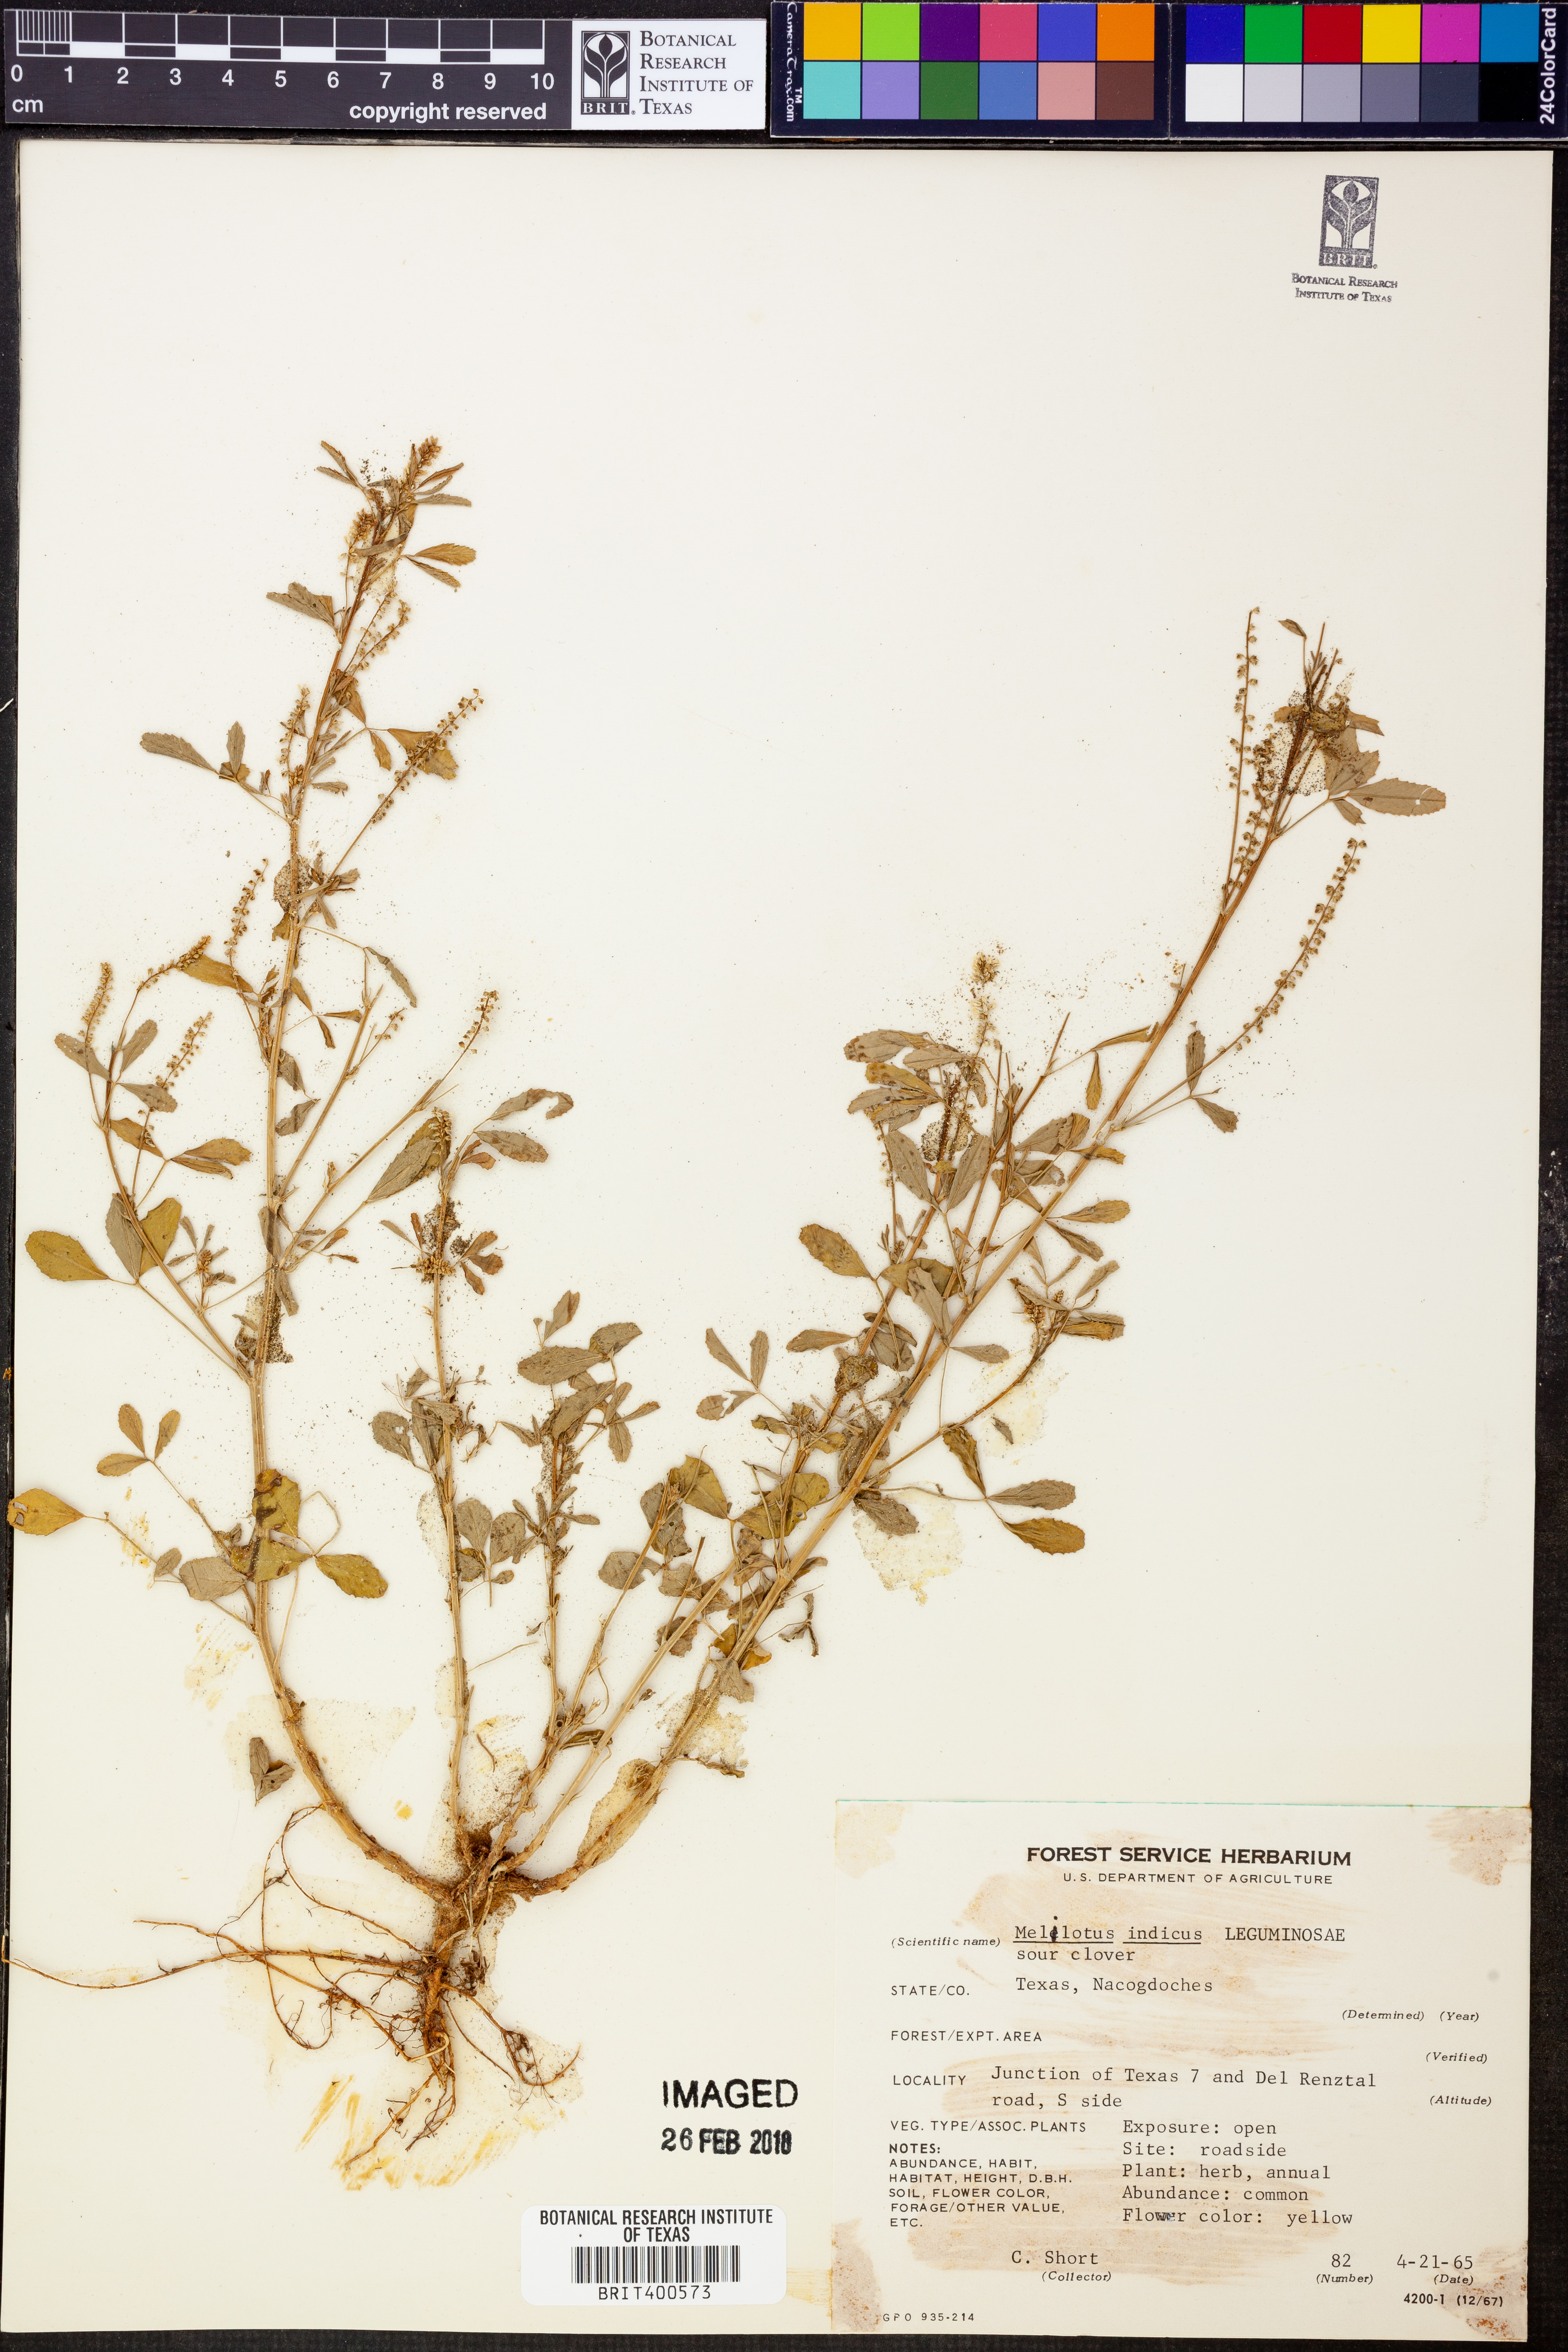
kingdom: Plantae
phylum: Tracheophyta
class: Magnoliopsida
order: Fabales
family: Fabaceae
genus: Melilotus
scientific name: Melilotus indicus
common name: Small melilot
